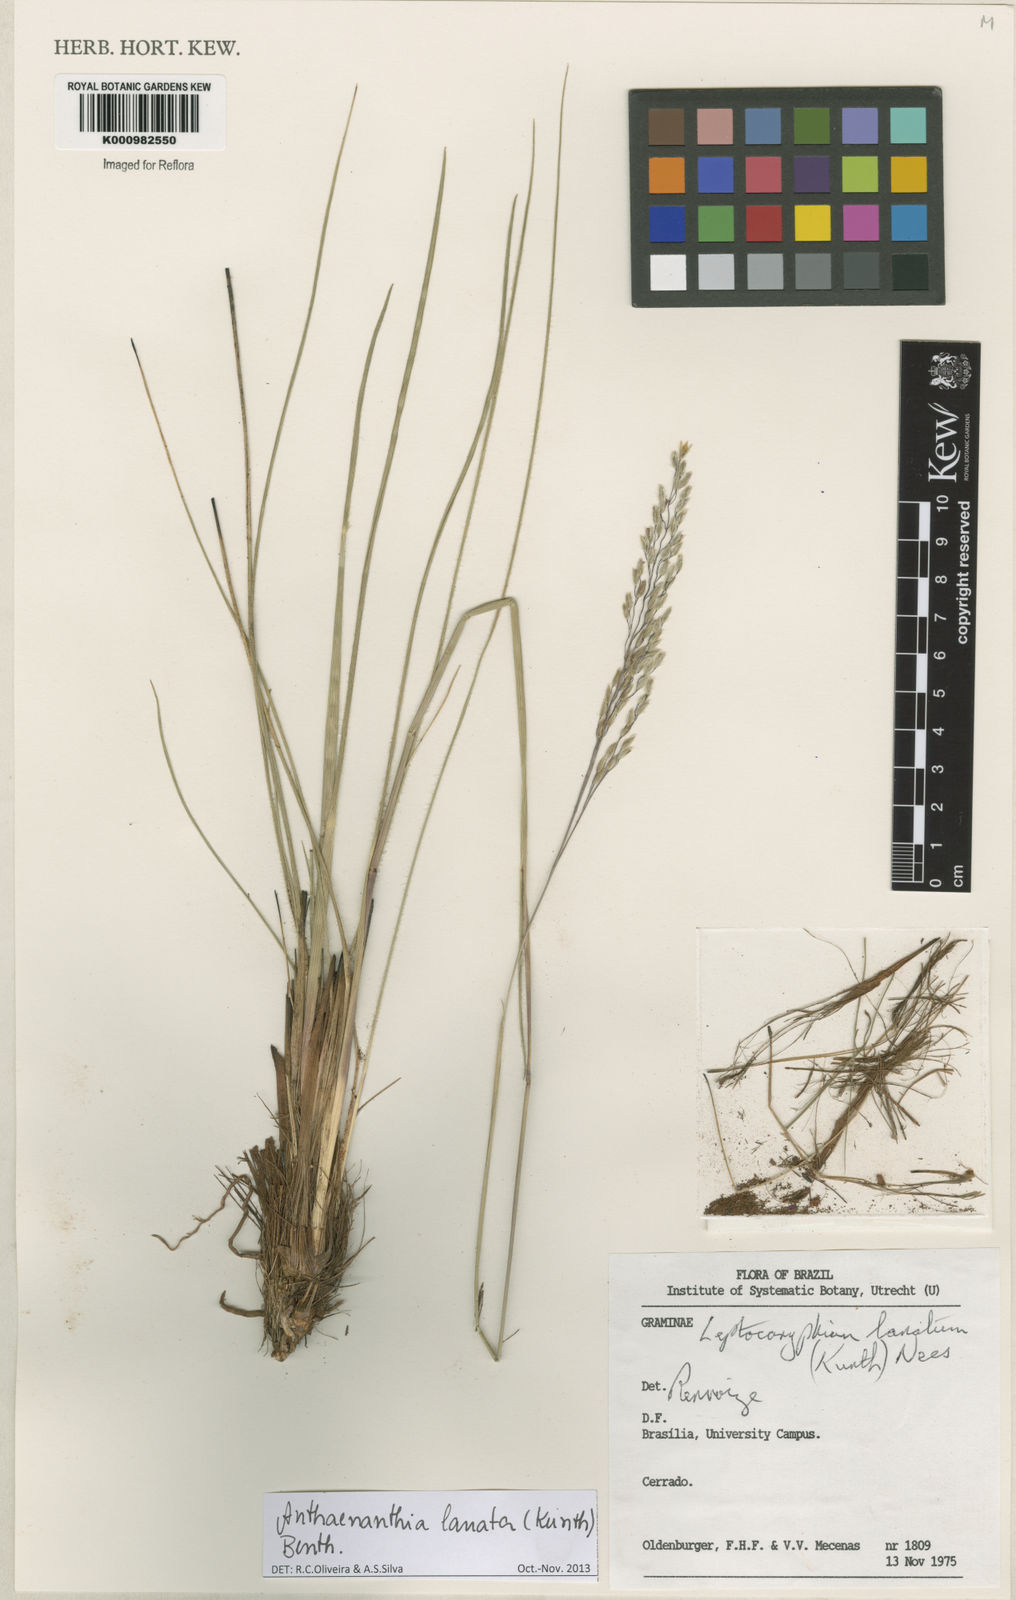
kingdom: Plantae
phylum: Tracheophyta
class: Liliopsida
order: Poales
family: Poaceae
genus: Anthenantia
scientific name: Anthenantia lanata
